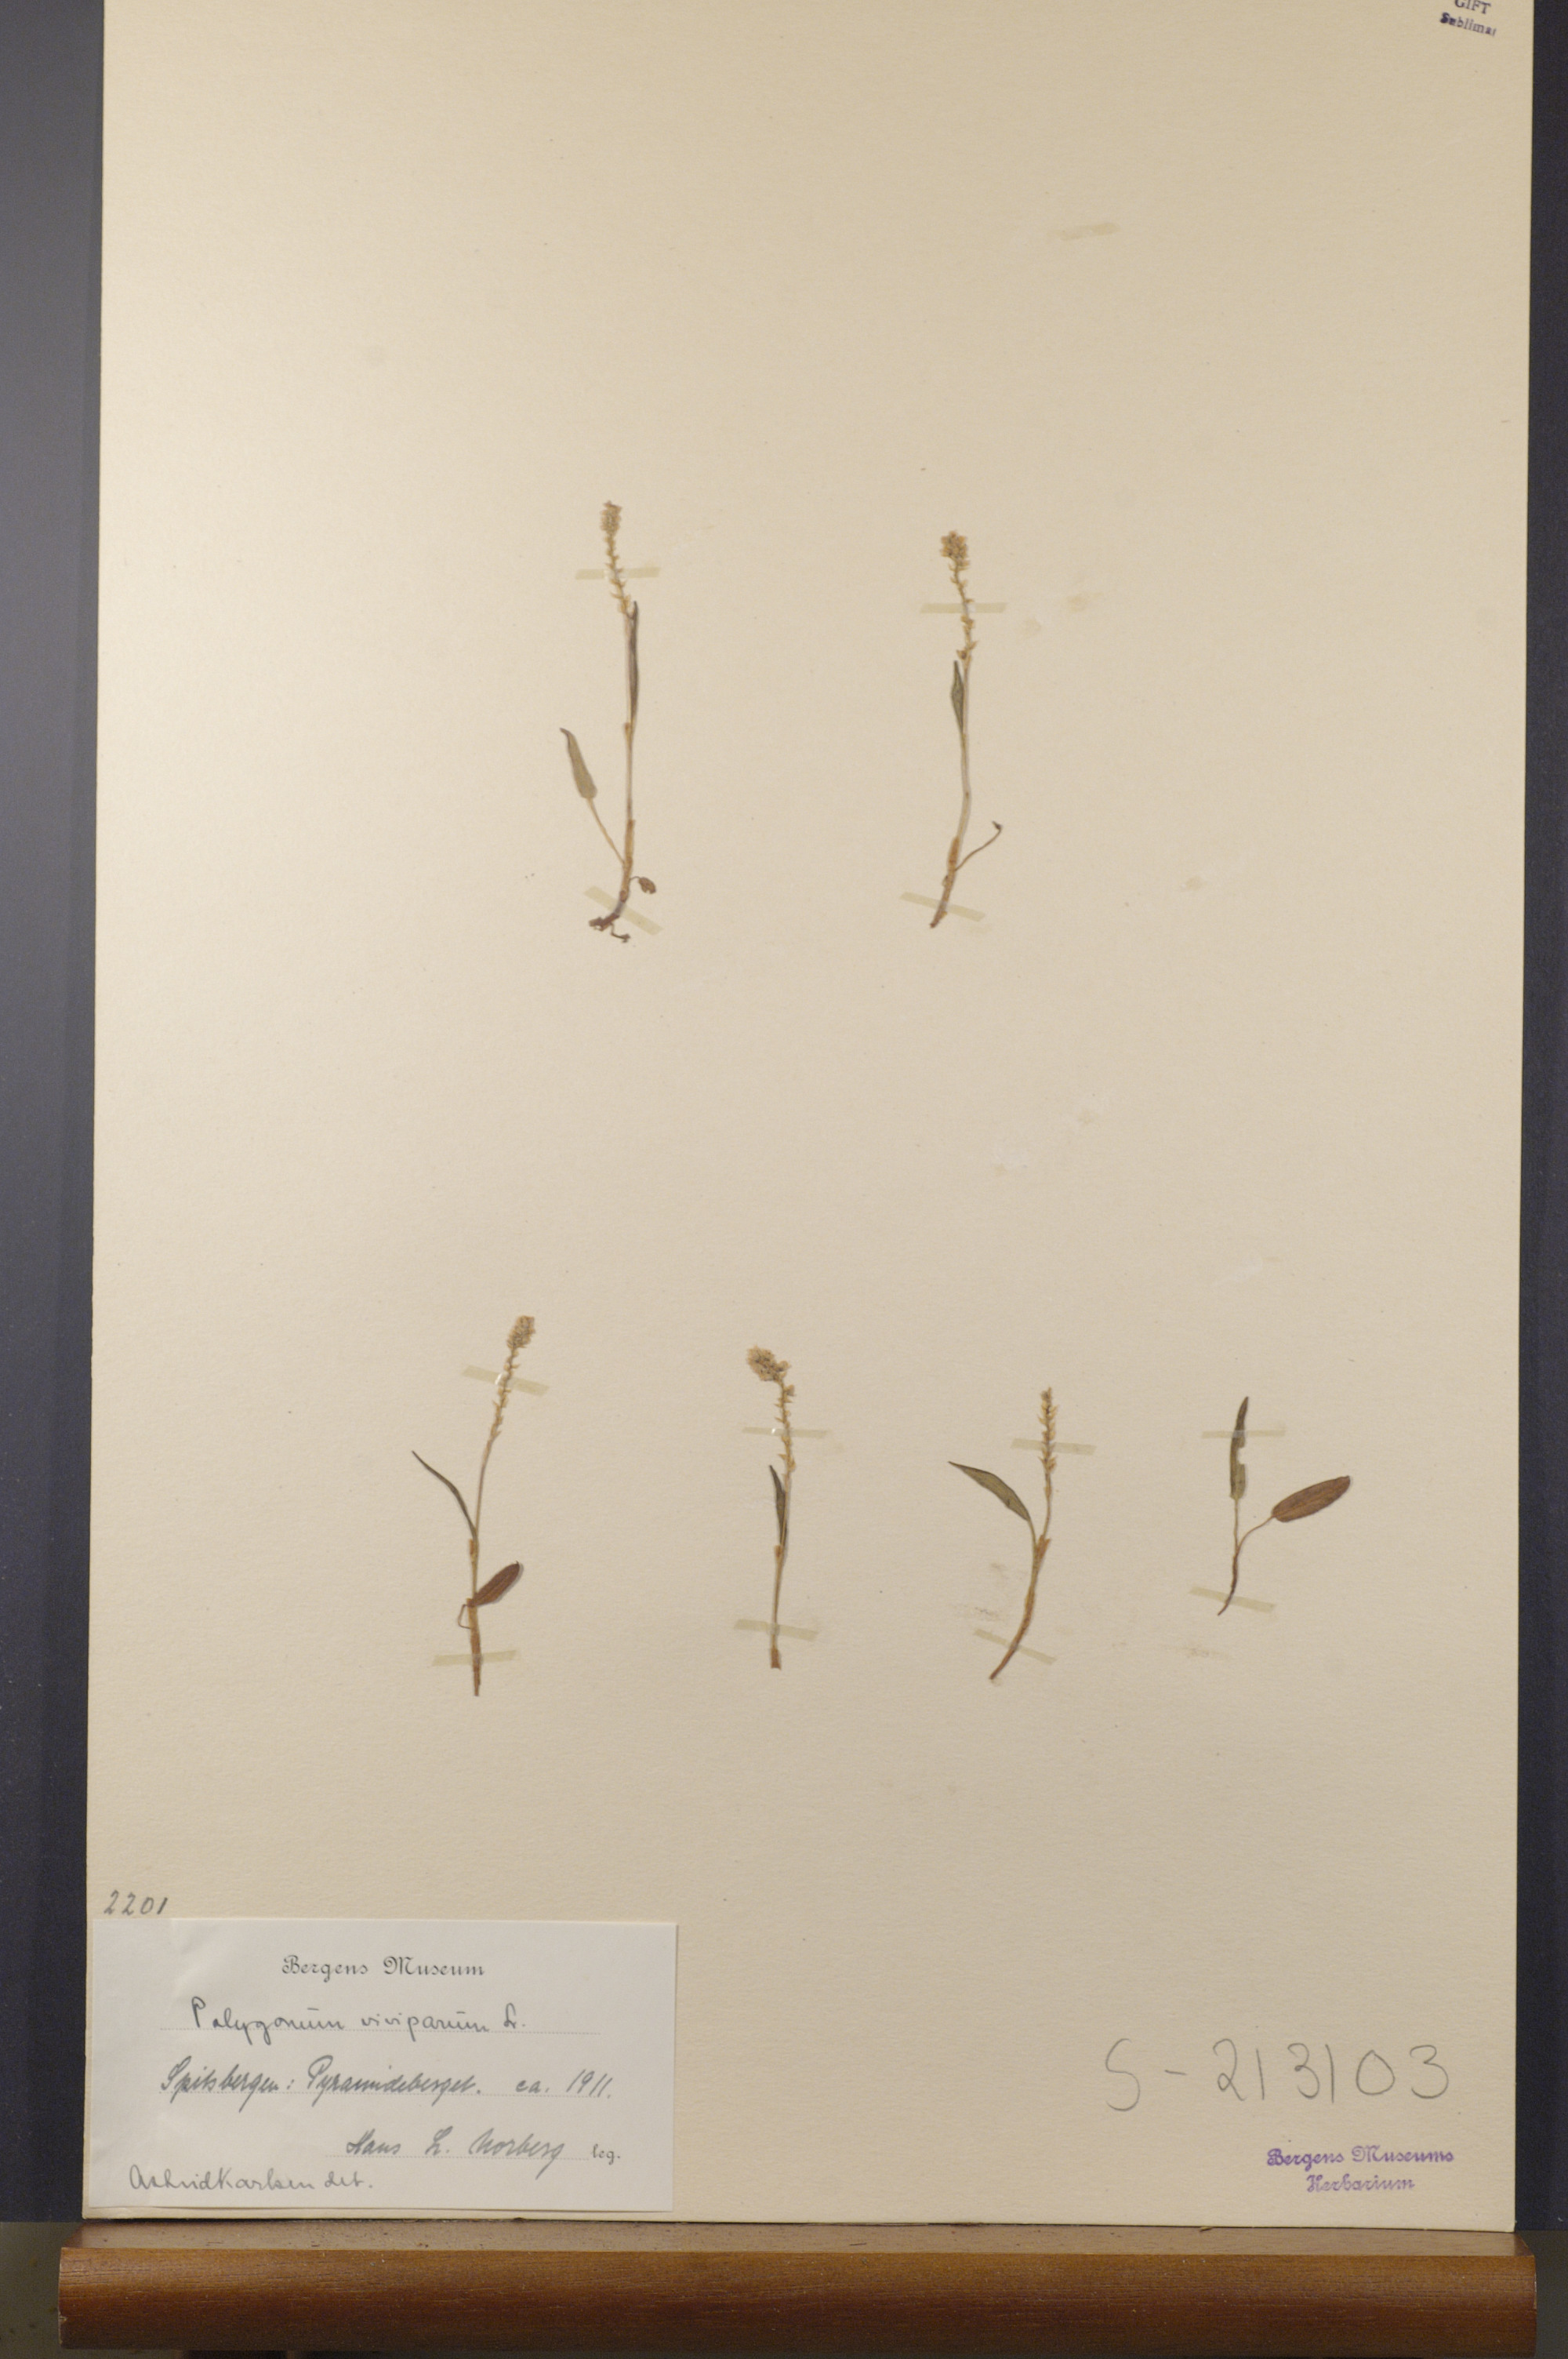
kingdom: Plantae
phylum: Tracheophyta
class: Magnoliopsida
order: Caryophyllales
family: Polygonaceae
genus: Bistorta
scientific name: Bistorta vivipara
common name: Alpine bistort
